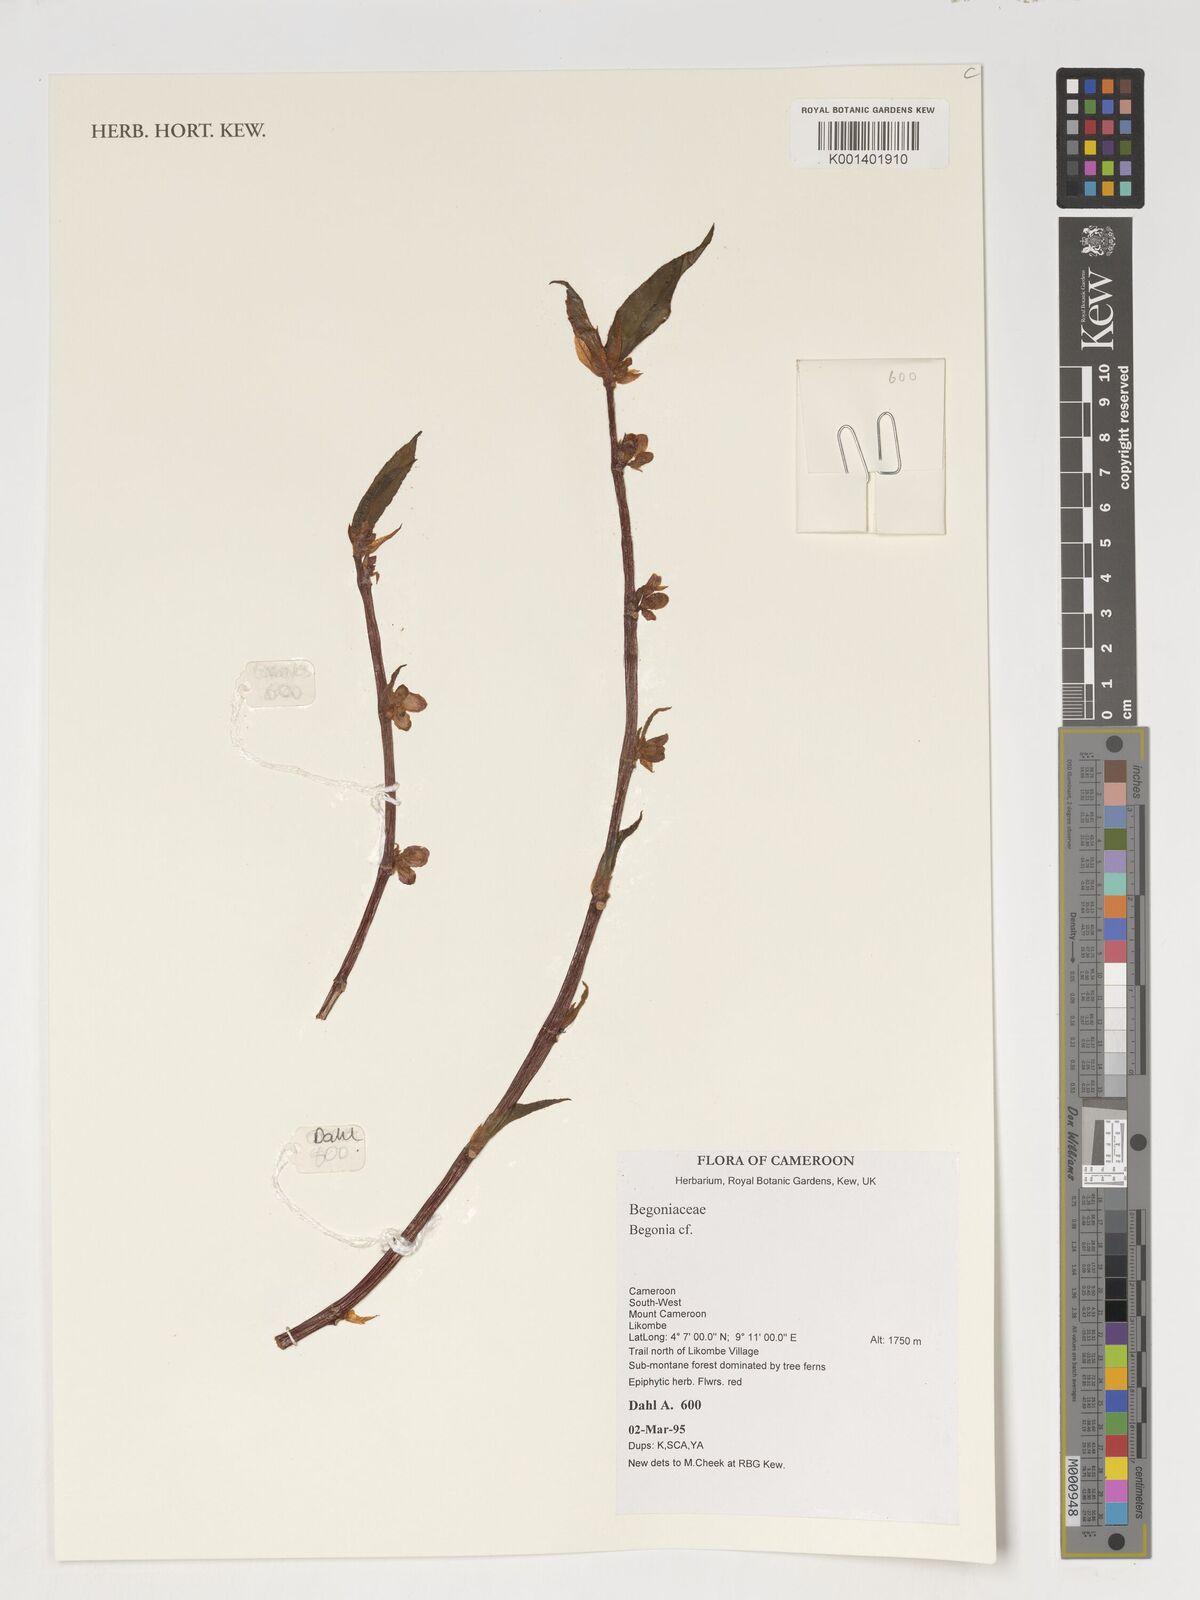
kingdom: Plantae
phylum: Tracheophyta
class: Magnoliopsida
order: Cucurbitales
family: Begoniaceae
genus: Begonia
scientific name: Begonia
